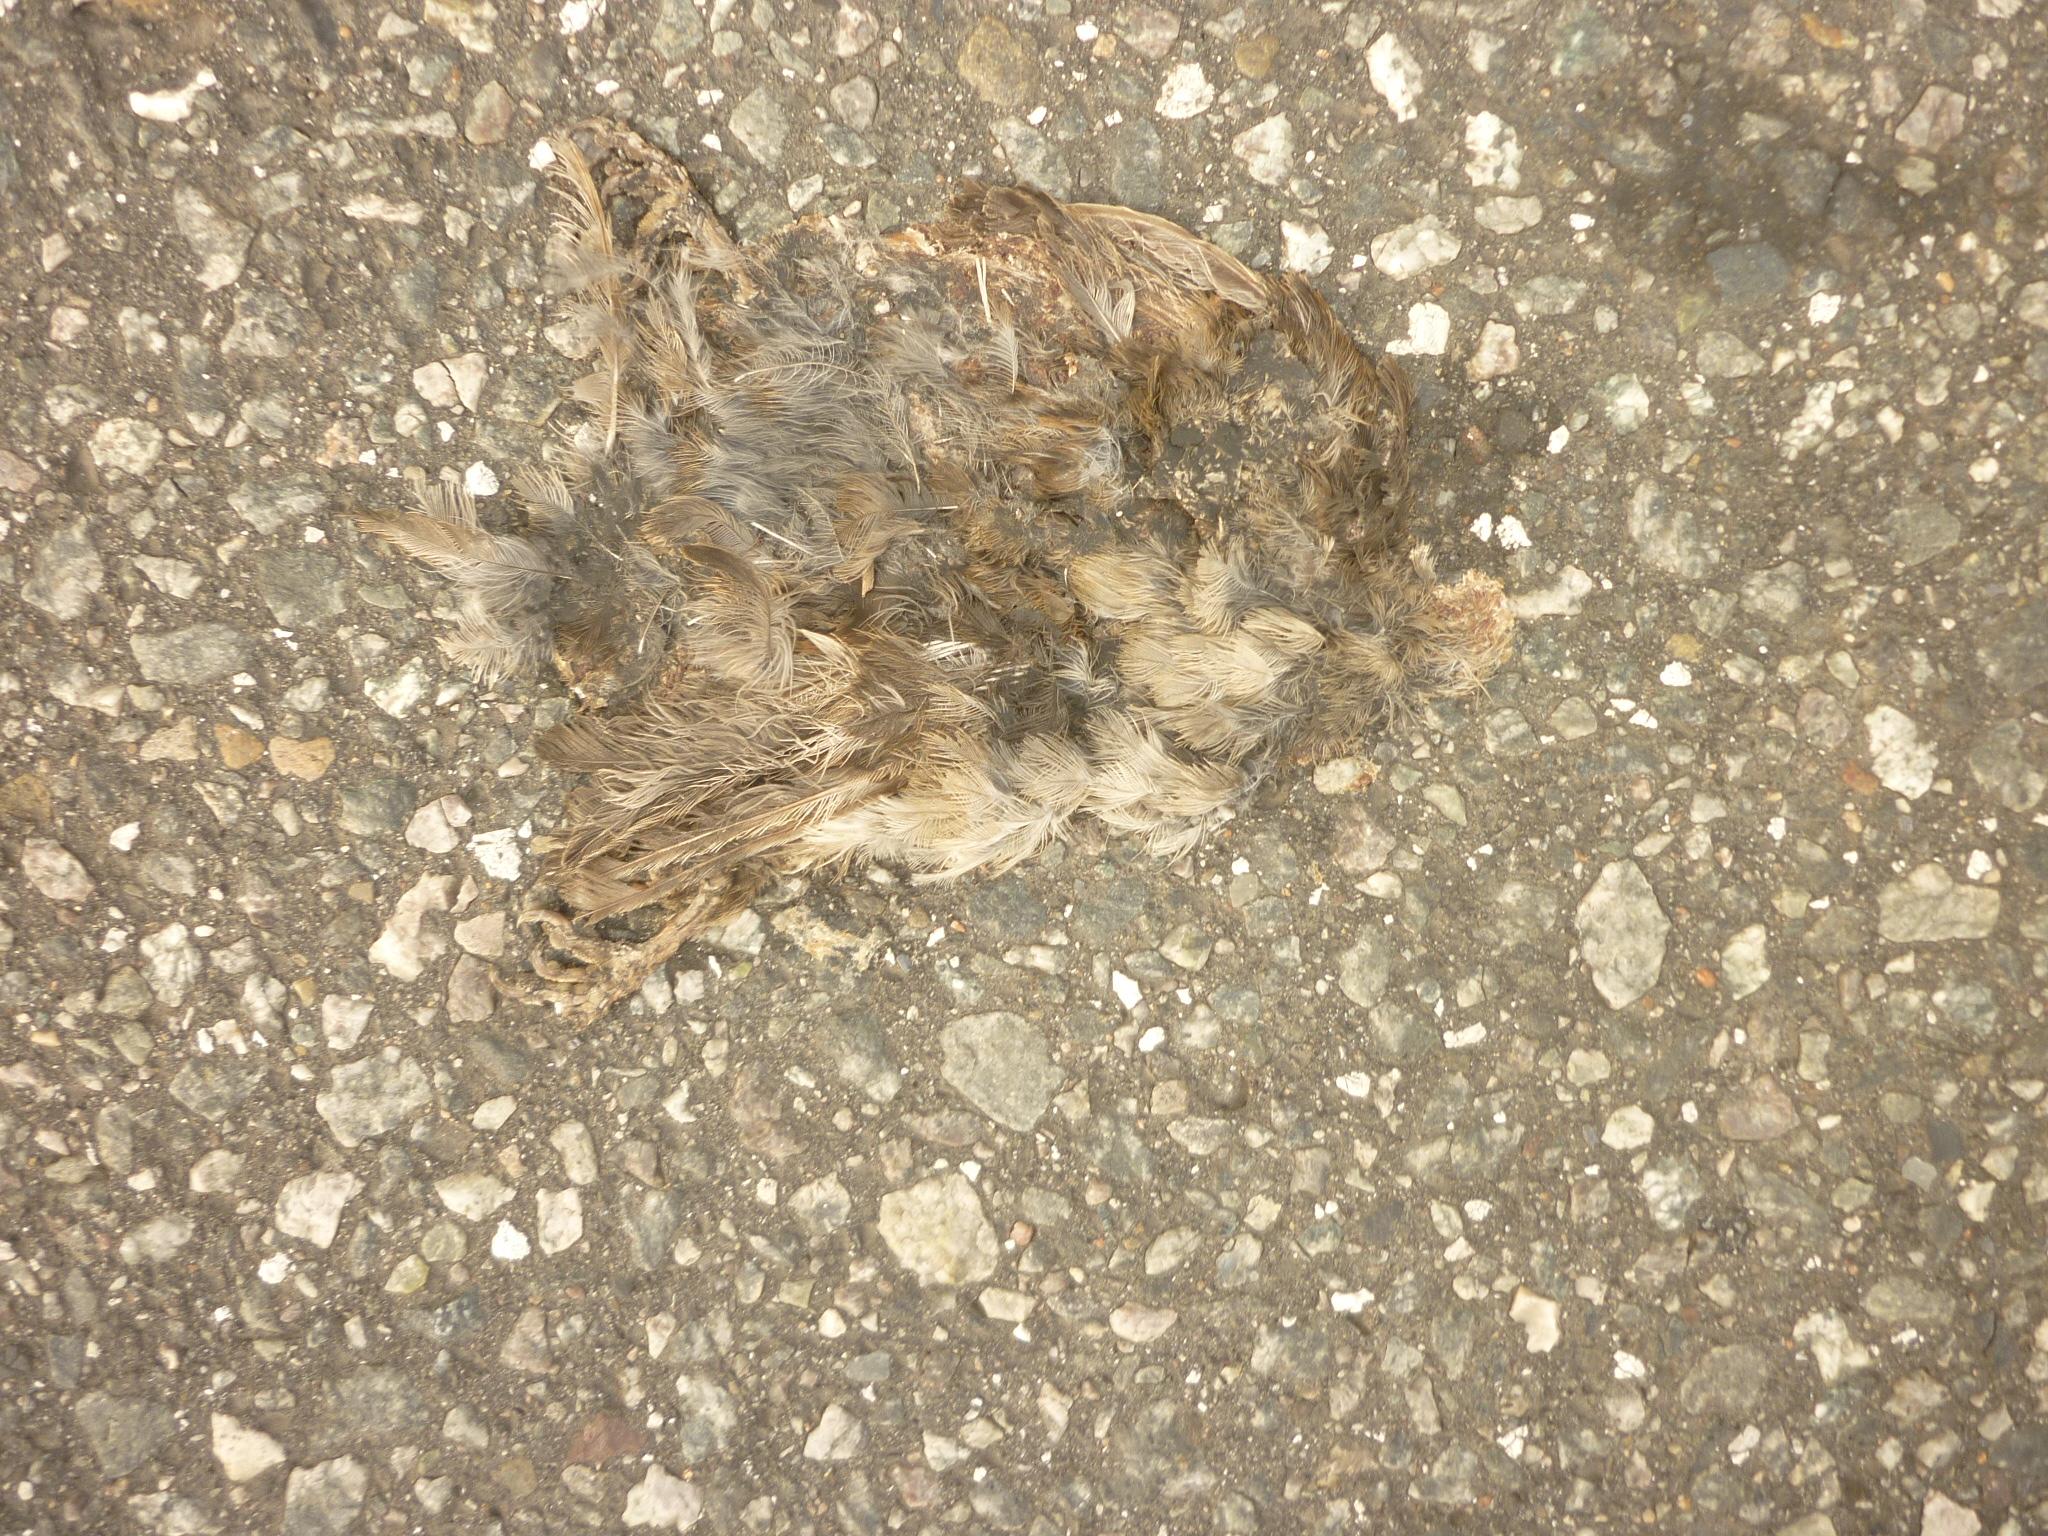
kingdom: Animalia
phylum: Chordata
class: Aves
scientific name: Aves
